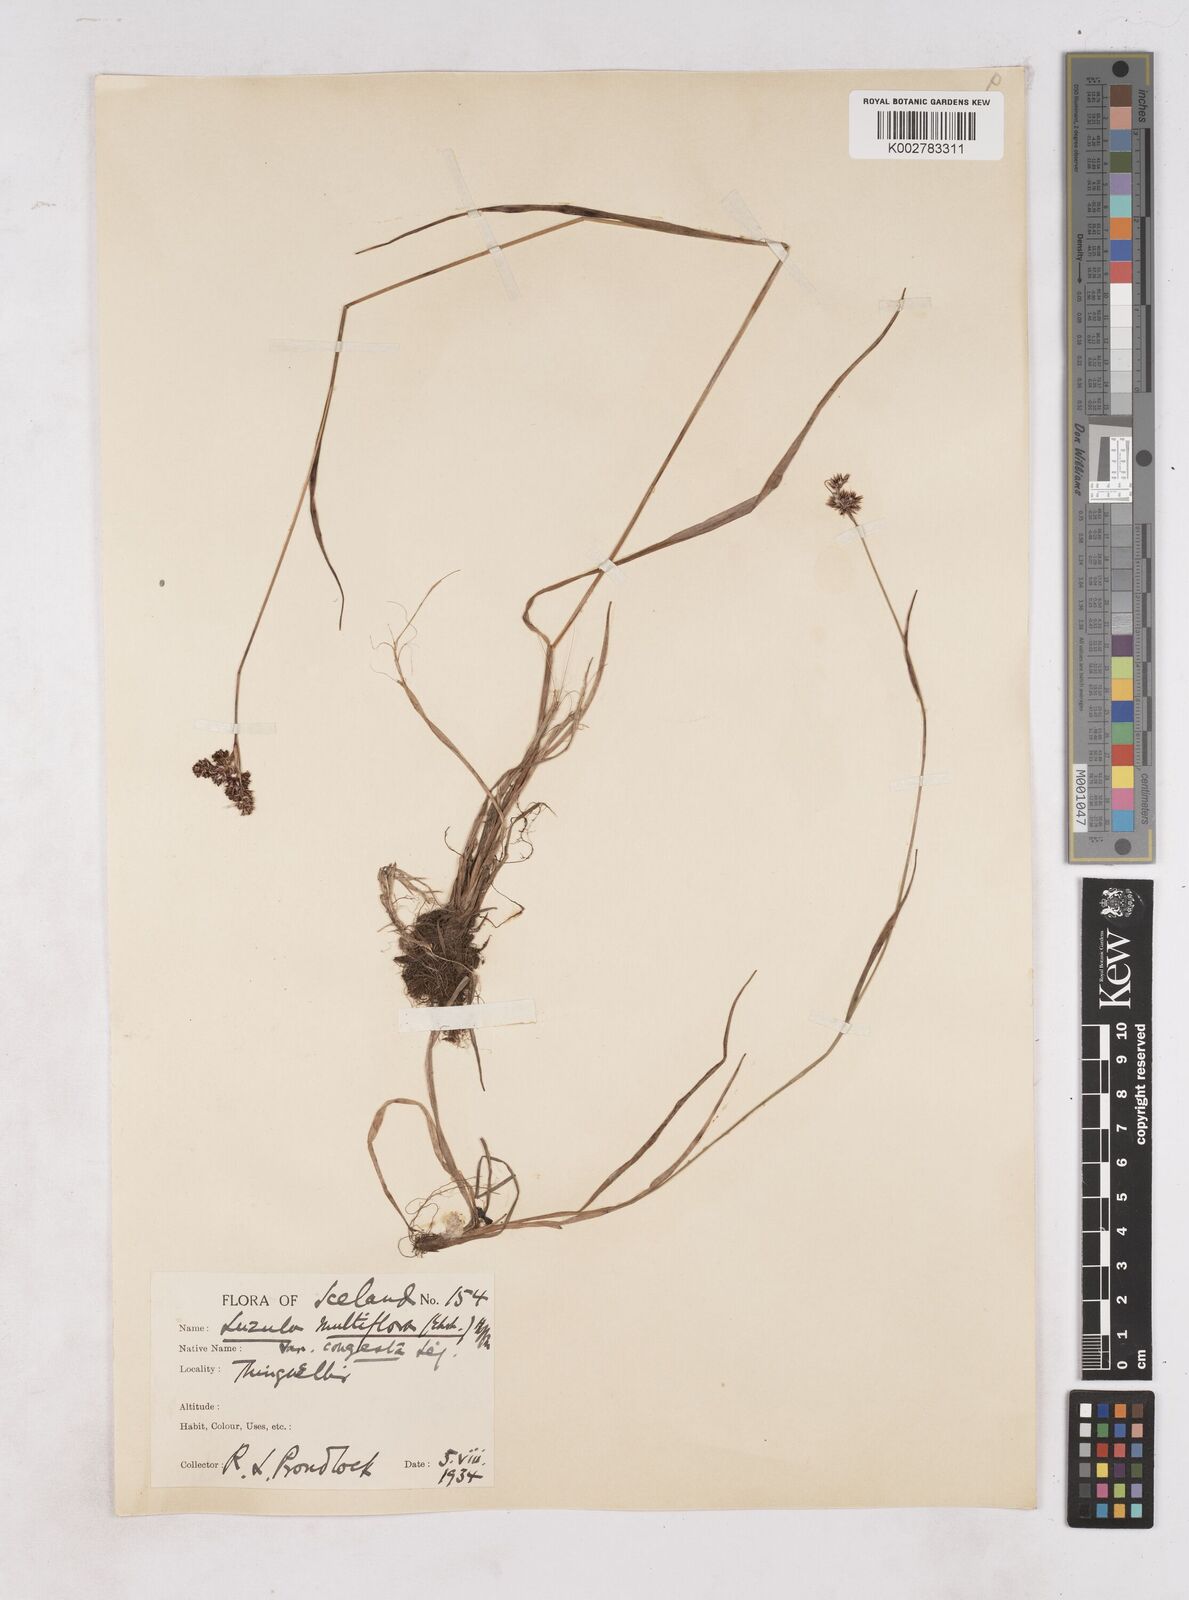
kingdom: Plantae
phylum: Tracheophyta
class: Liliopsida
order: Poales
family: Juncaceae
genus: Luzula
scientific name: Luzula multiflora
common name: Heath wood-rush
